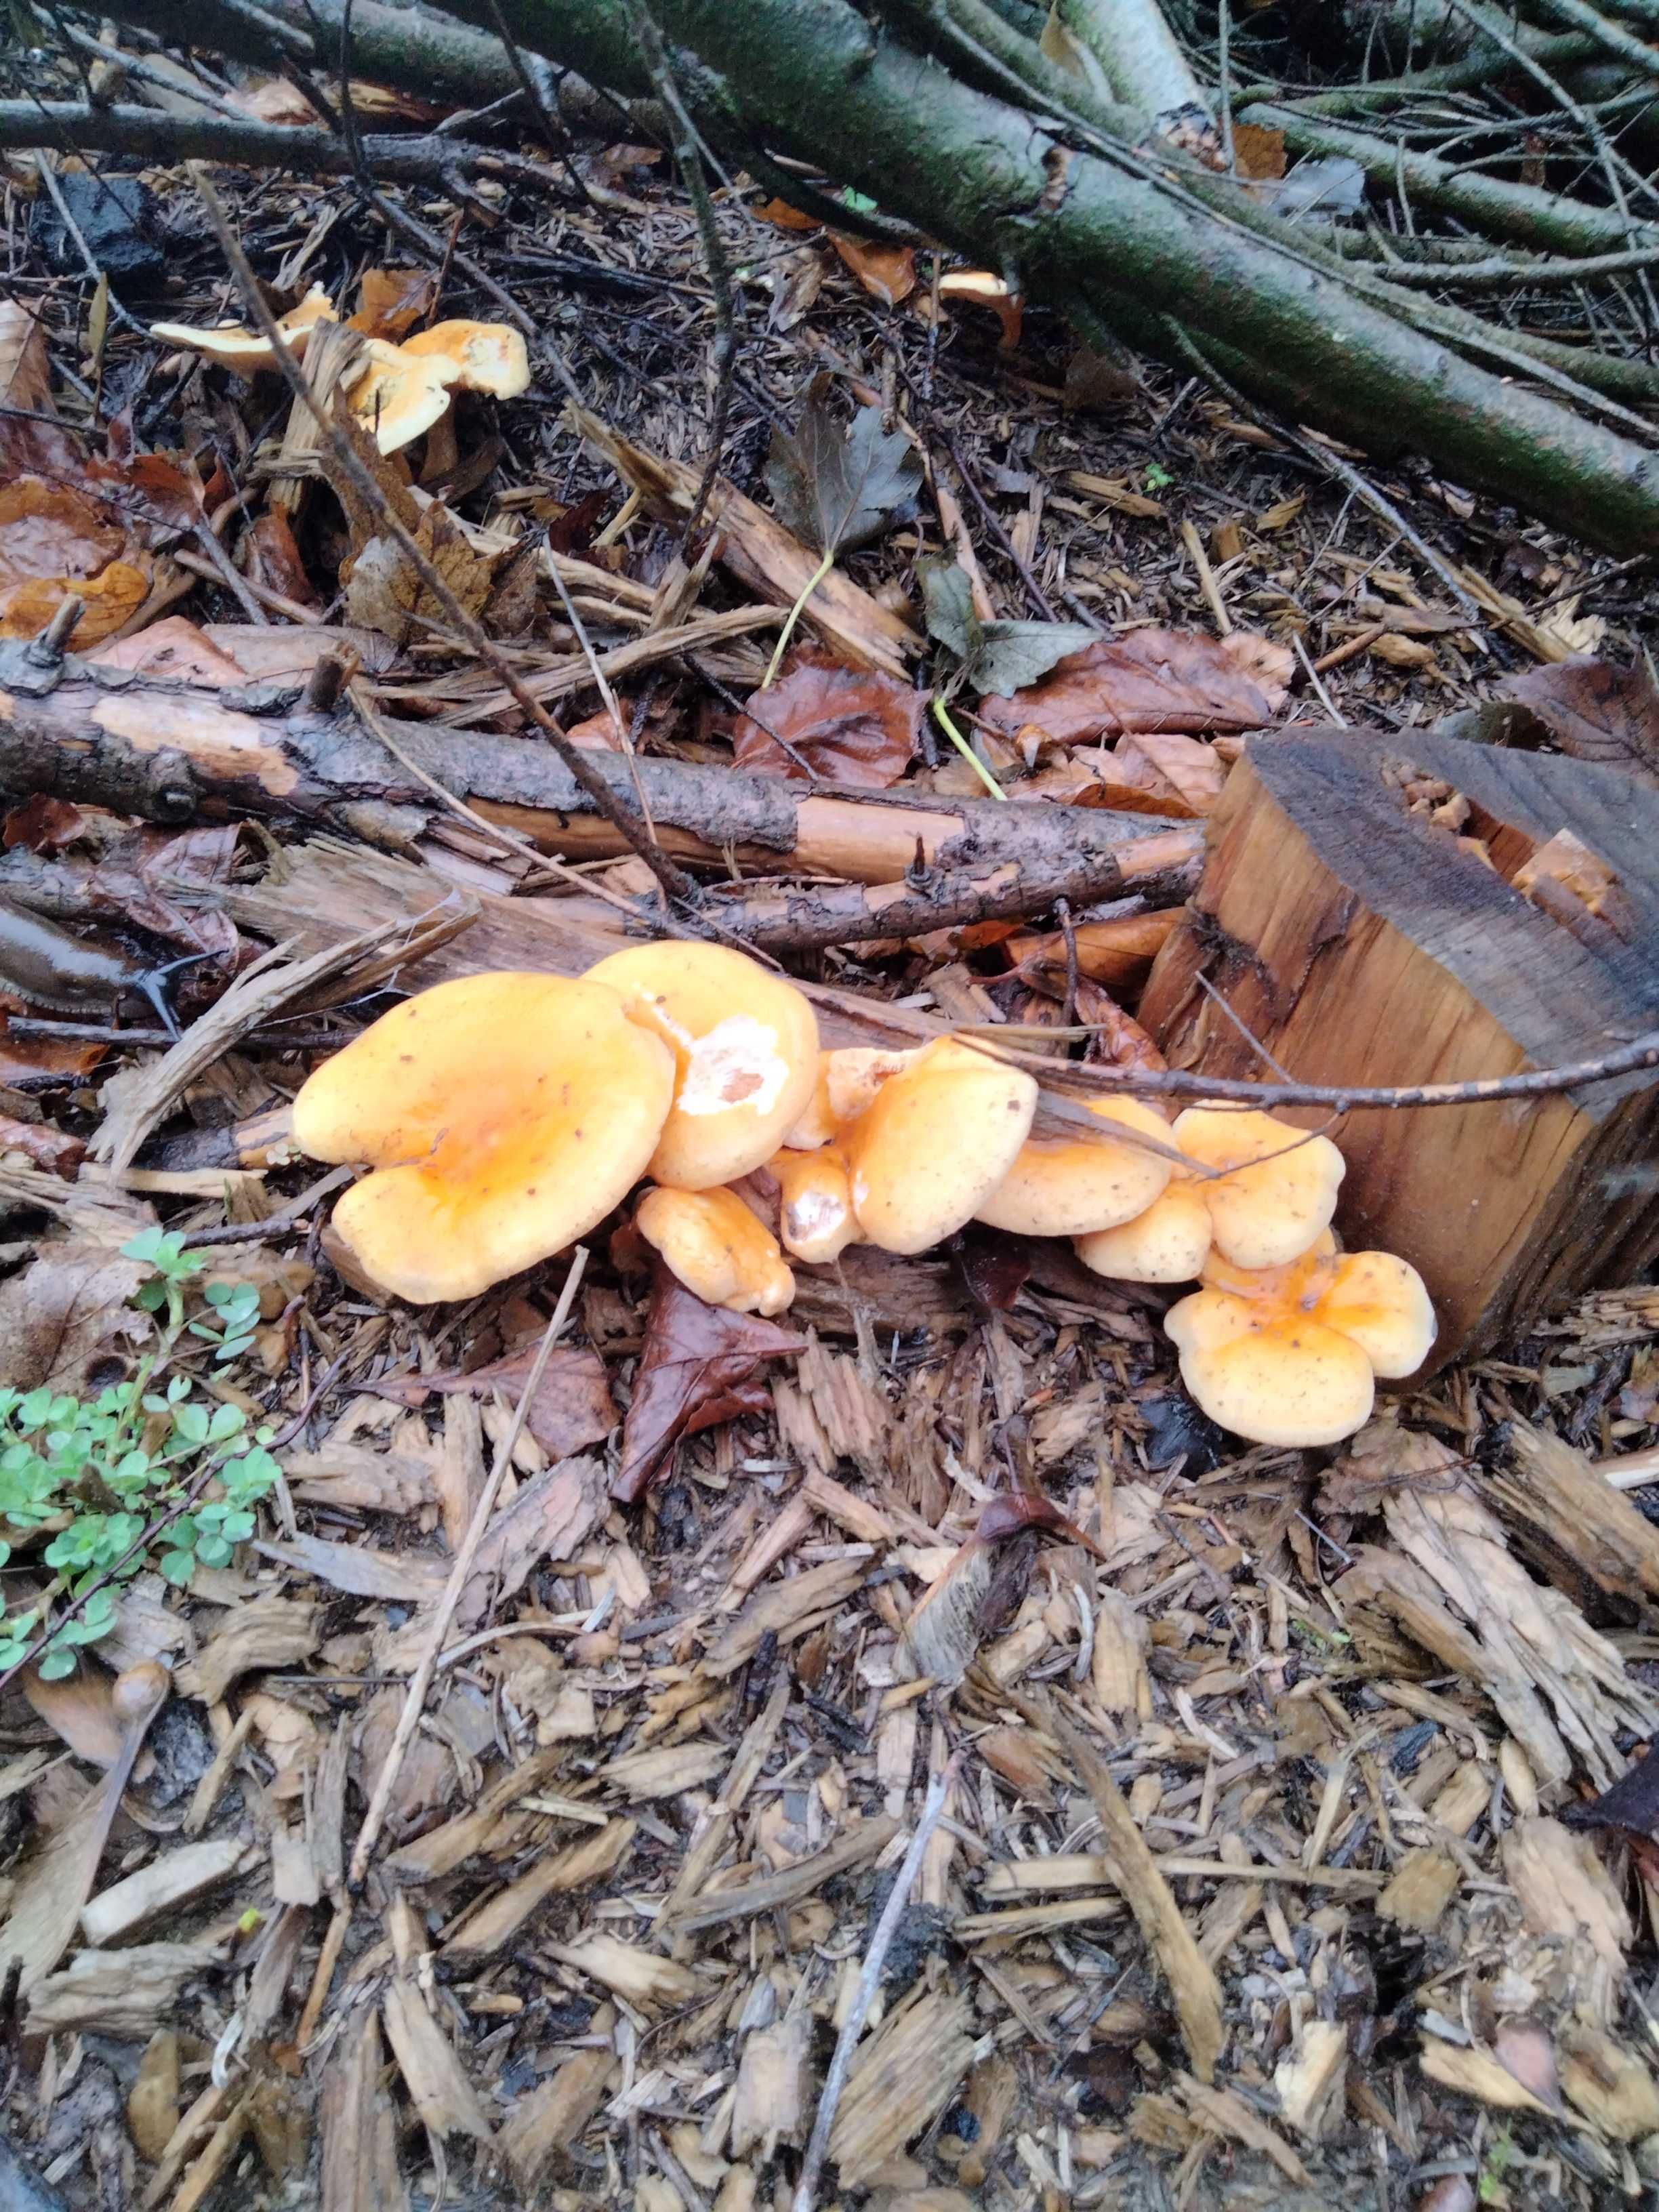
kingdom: Fungi
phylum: Basidiomycota
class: Agaricomycetes
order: Boletales
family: Hygrophoropsidaceae
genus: Hygrophoropsis
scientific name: Hygrophoropsis aurantiaca
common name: almindelig orangekantarel
